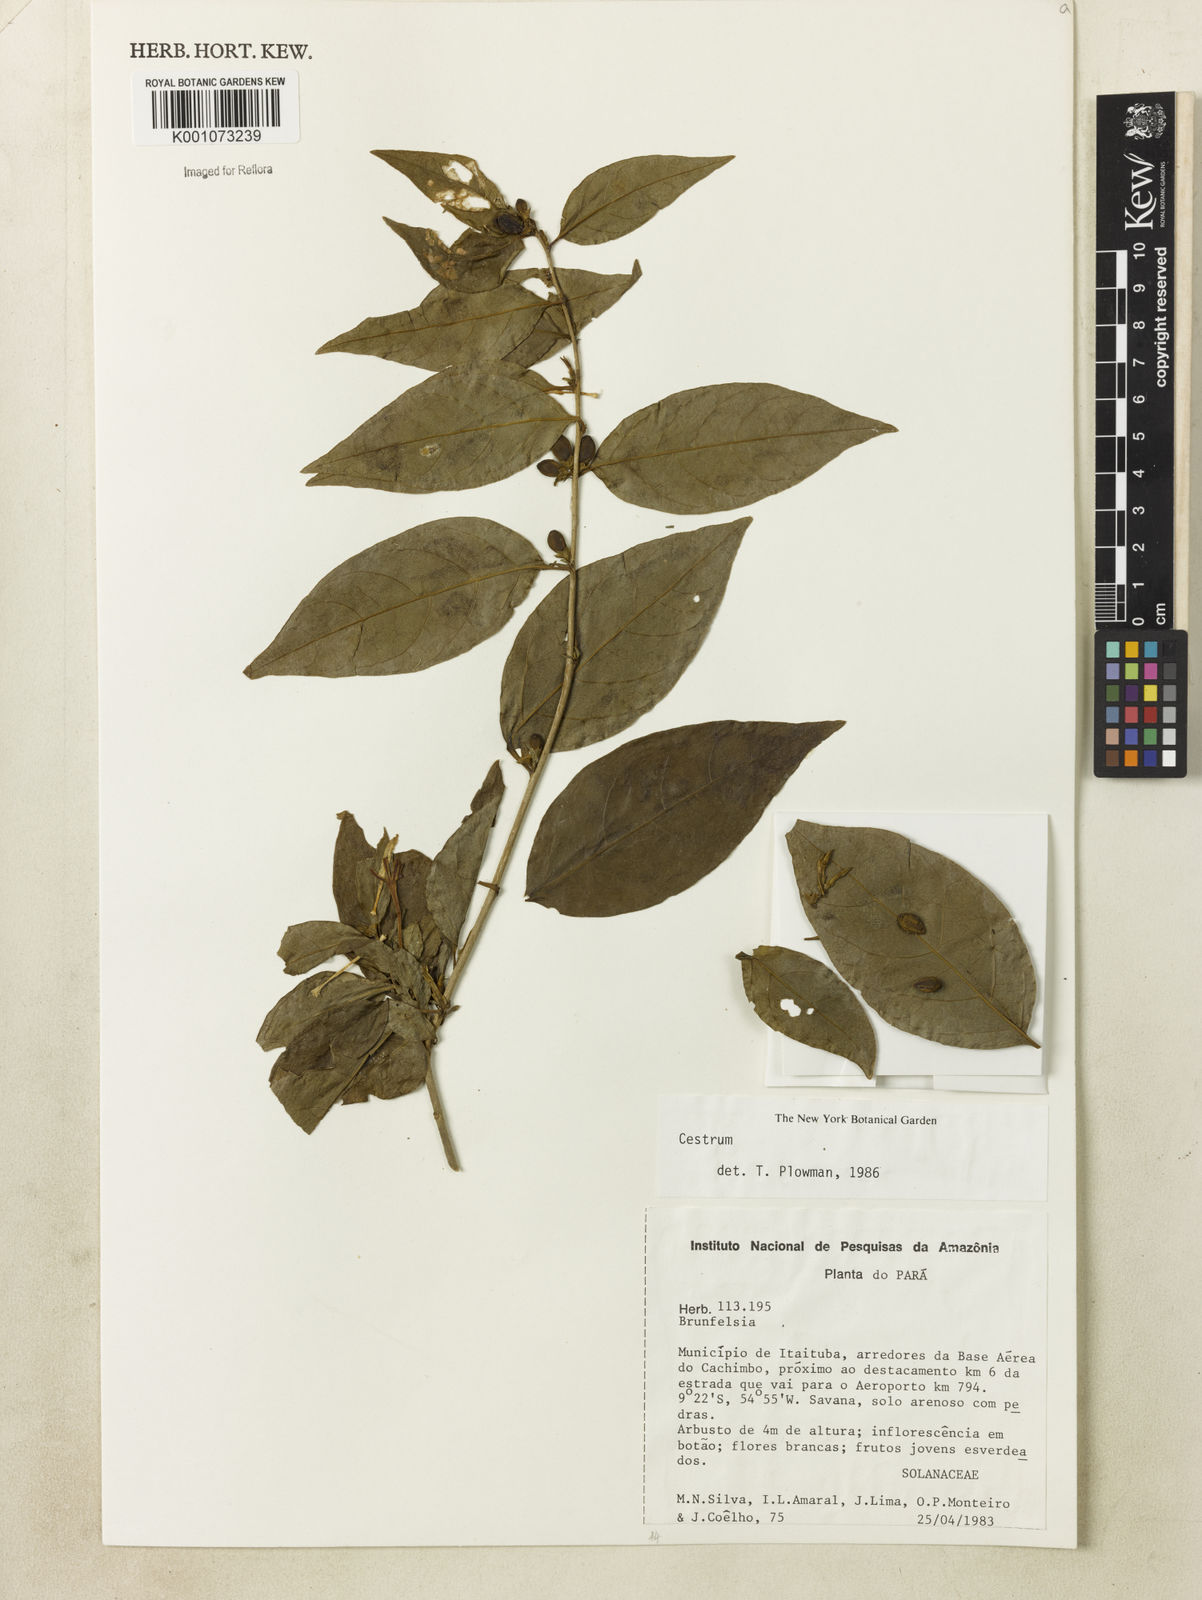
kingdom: Plantae
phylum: Tracheophyta
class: Magnoliopsida
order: Solanales
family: Solanaceae
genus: Cestrum
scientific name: Cestrum
